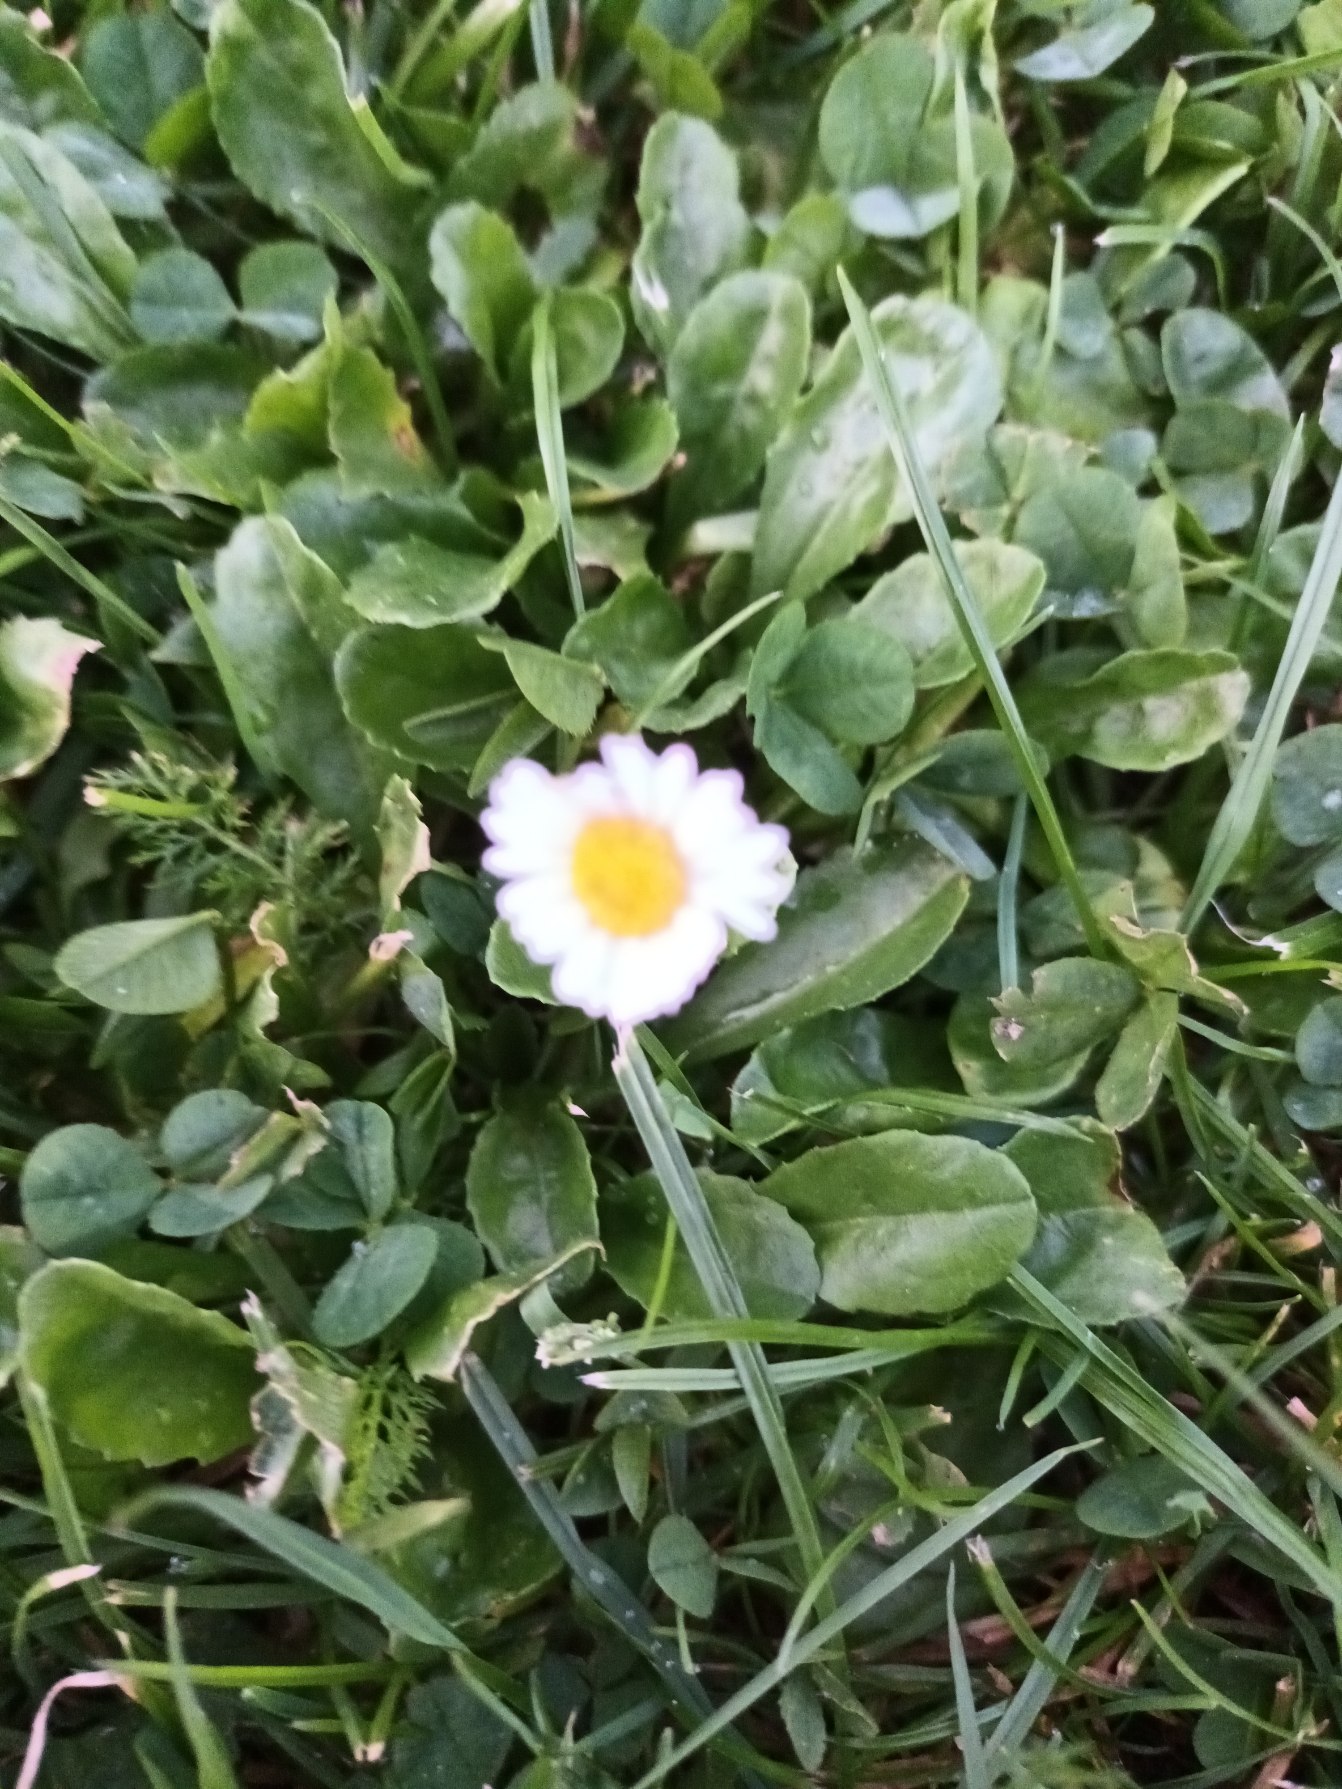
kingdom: Plantae
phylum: Tracheophyta
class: Magnoliopsida
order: Asterales
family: Asteraceae
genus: Bellis
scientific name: Bellis perennis
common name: Tusindfryd
